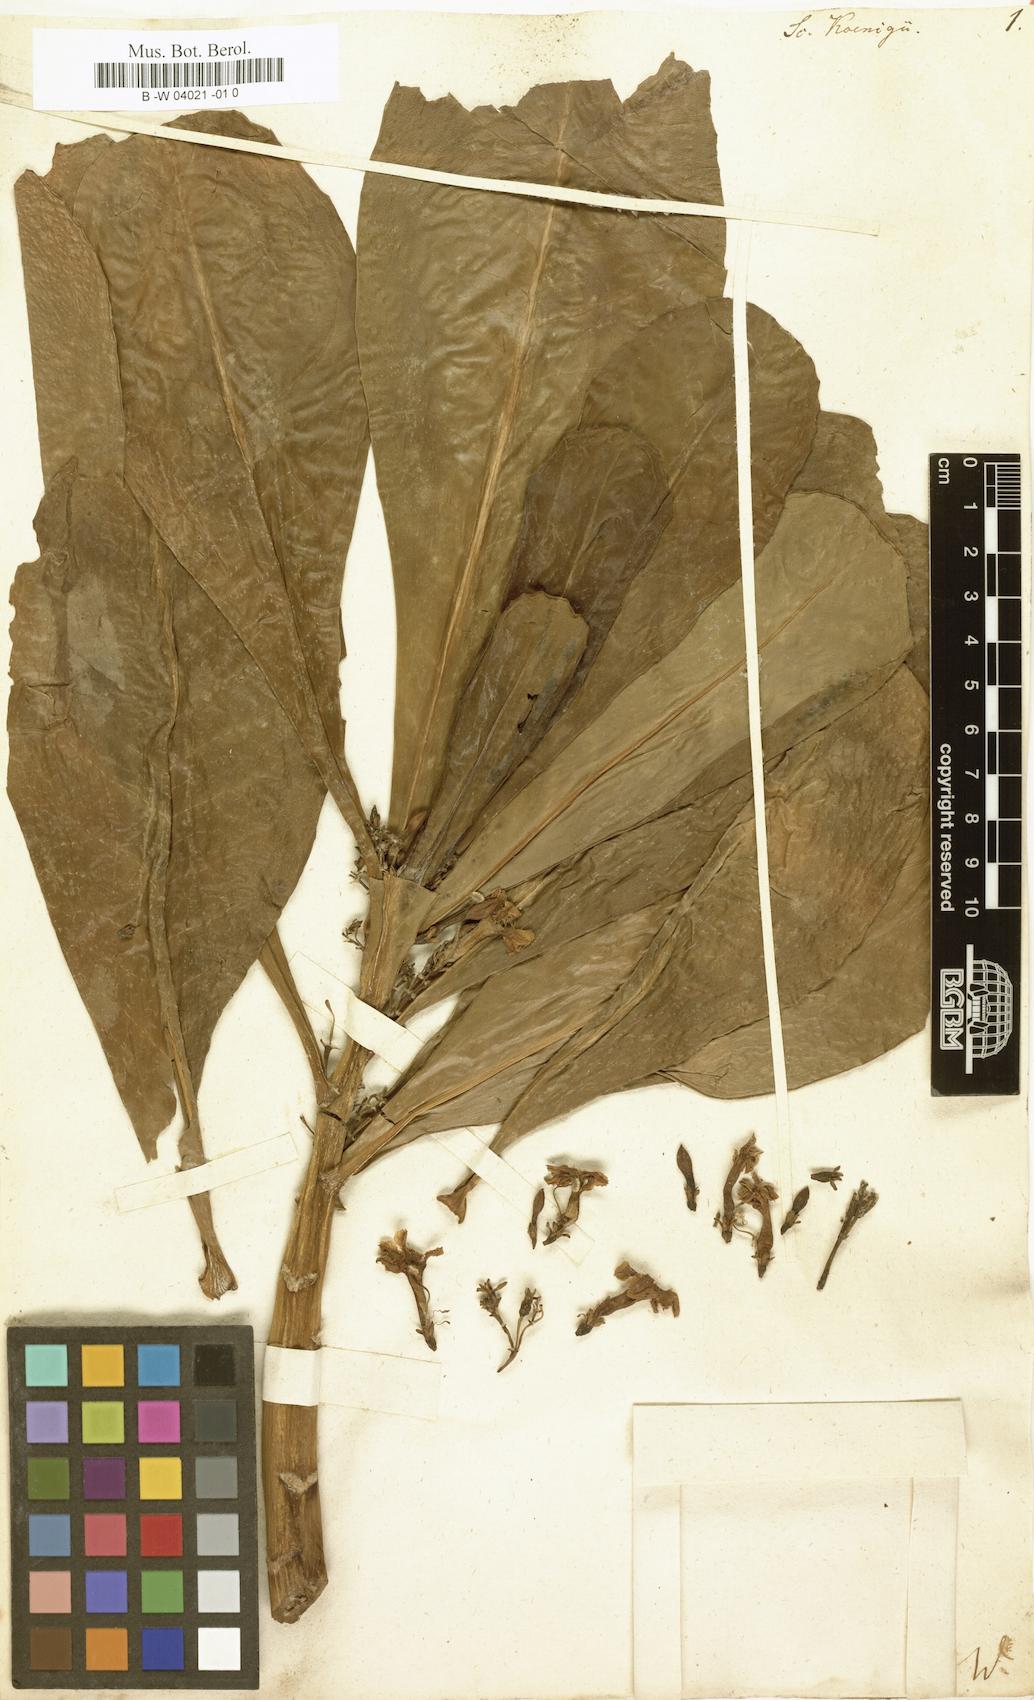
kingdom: Plantae
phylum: Tracheophyta
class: Magnoliopsida
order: Asterales
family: Goodeniaceae
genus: Scaevola
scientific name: Scaevola taccada
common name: Sea lettucetree
